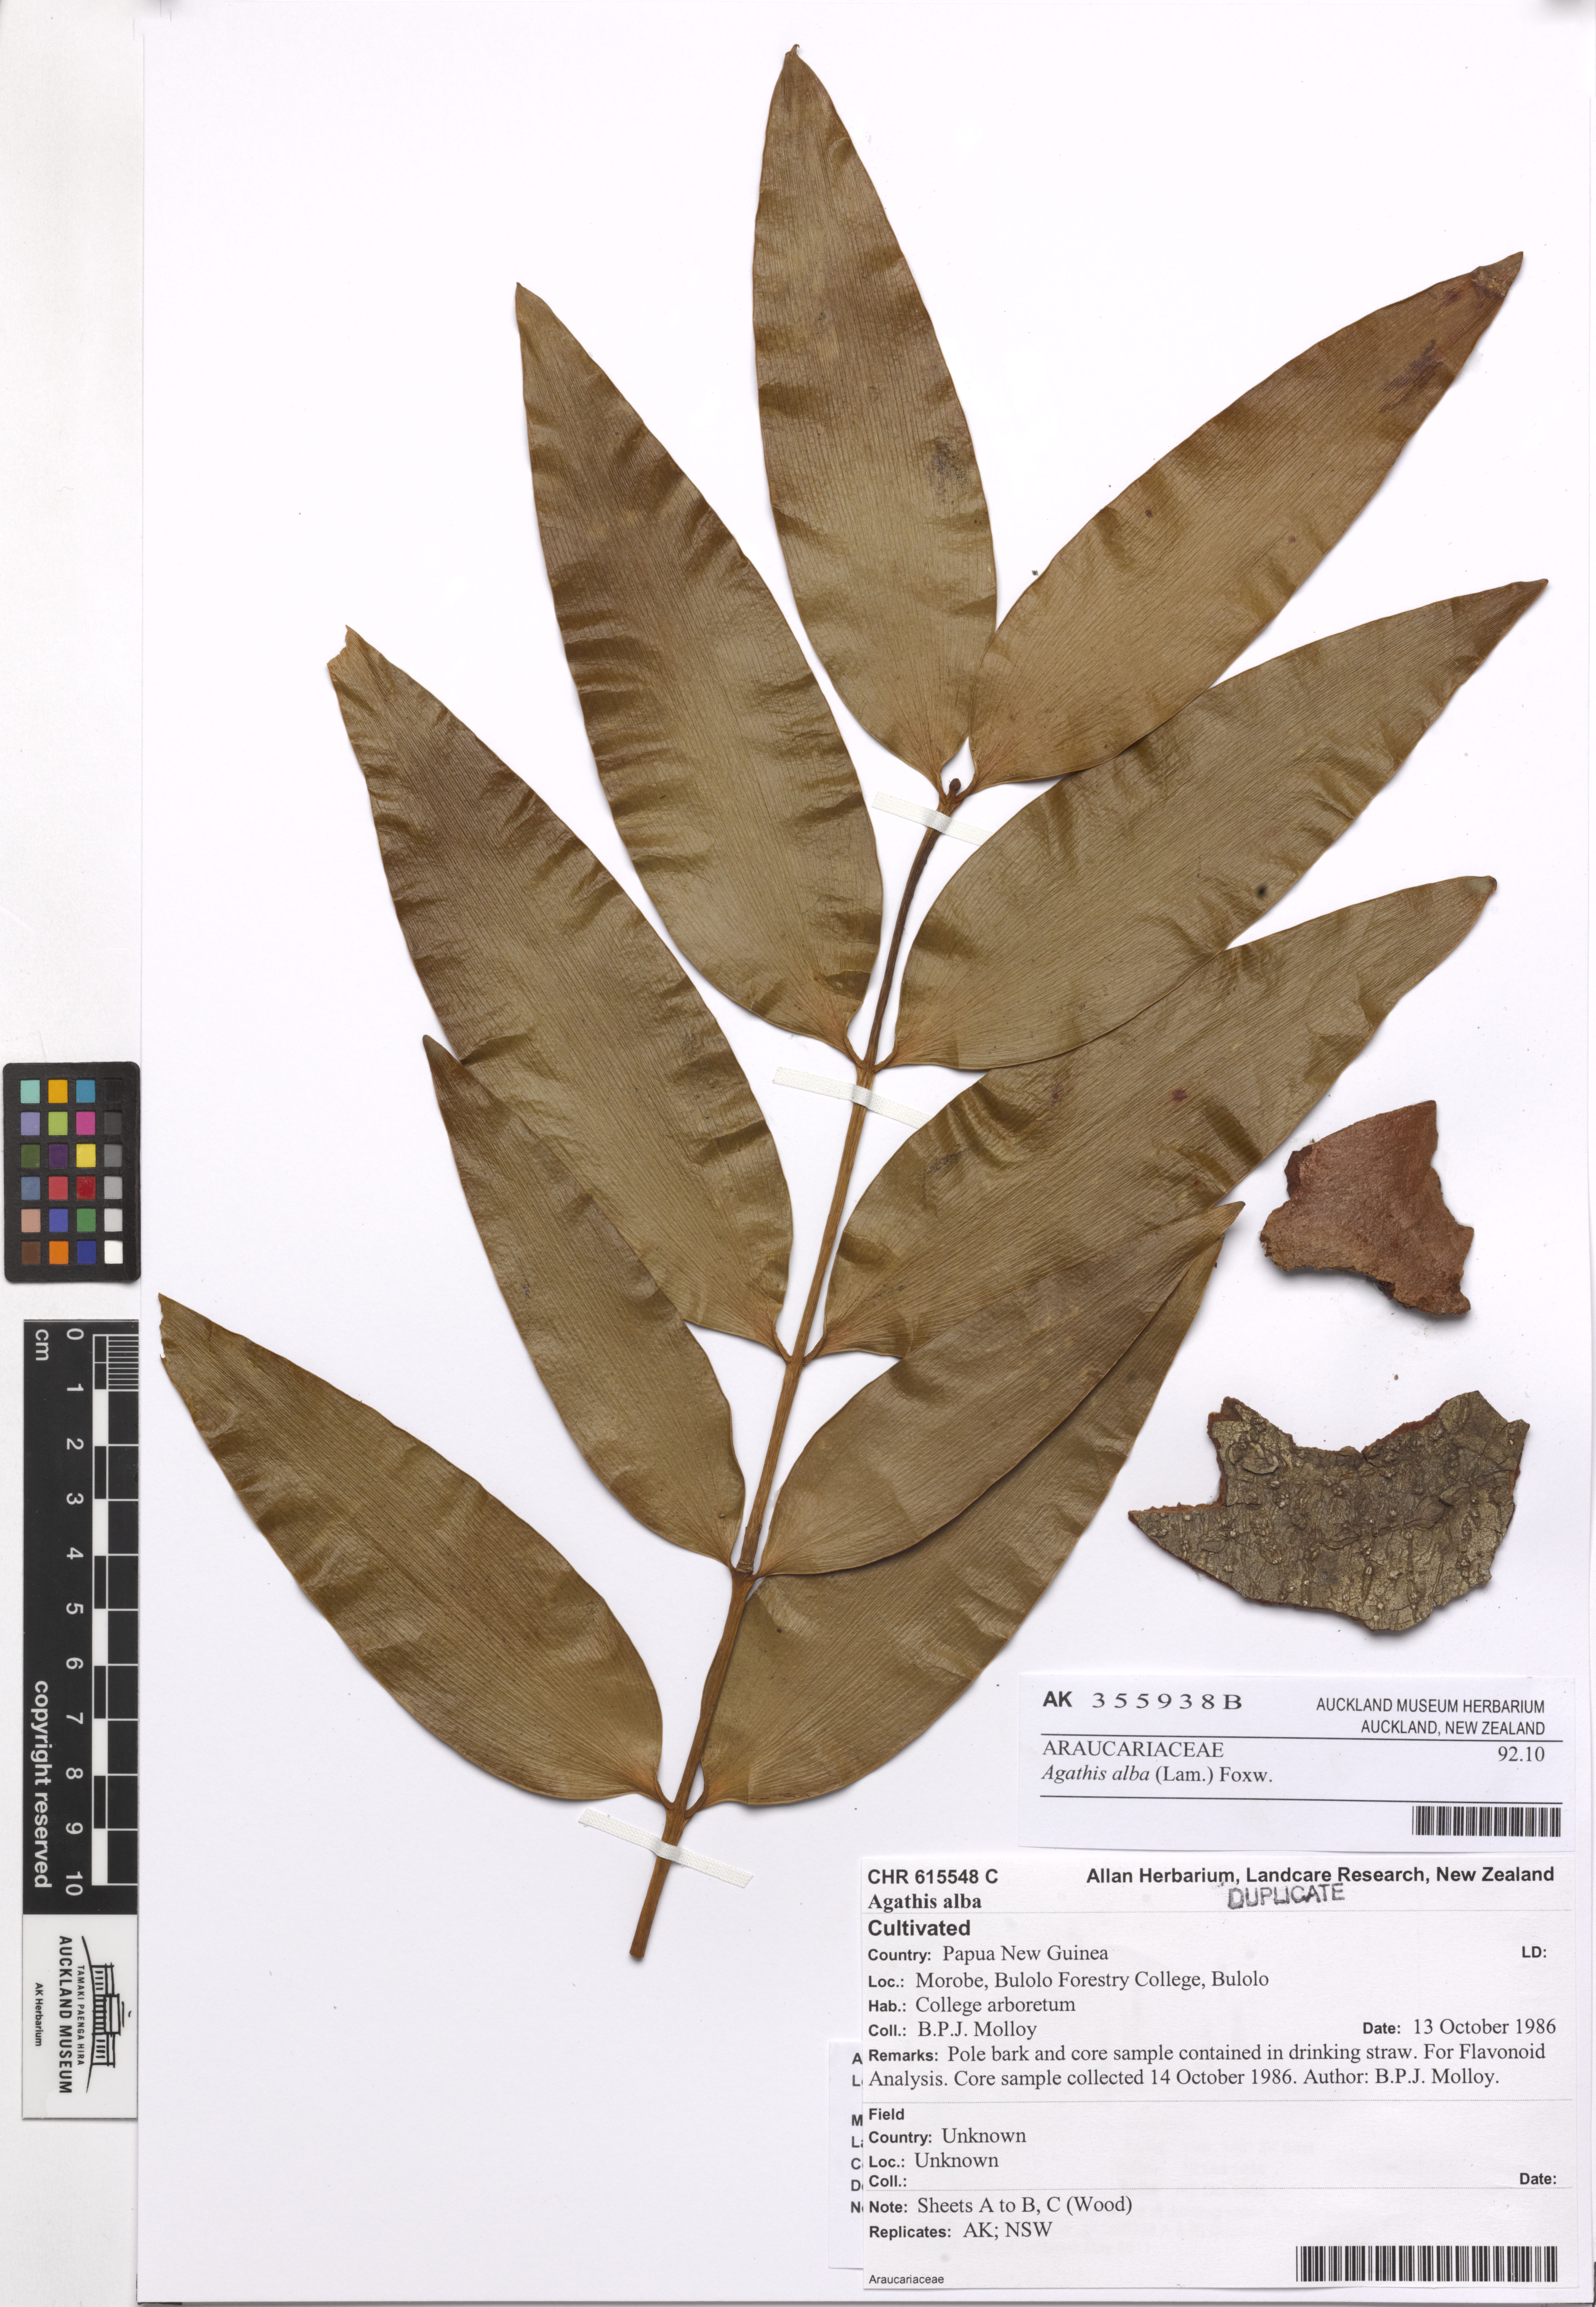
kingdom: Plantae
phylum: Tracheophyta
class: Pinopsida
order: Pinales
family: Araucariaceae
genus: Agathis
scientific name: Agathis dammara
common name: Amboina pitch tree
